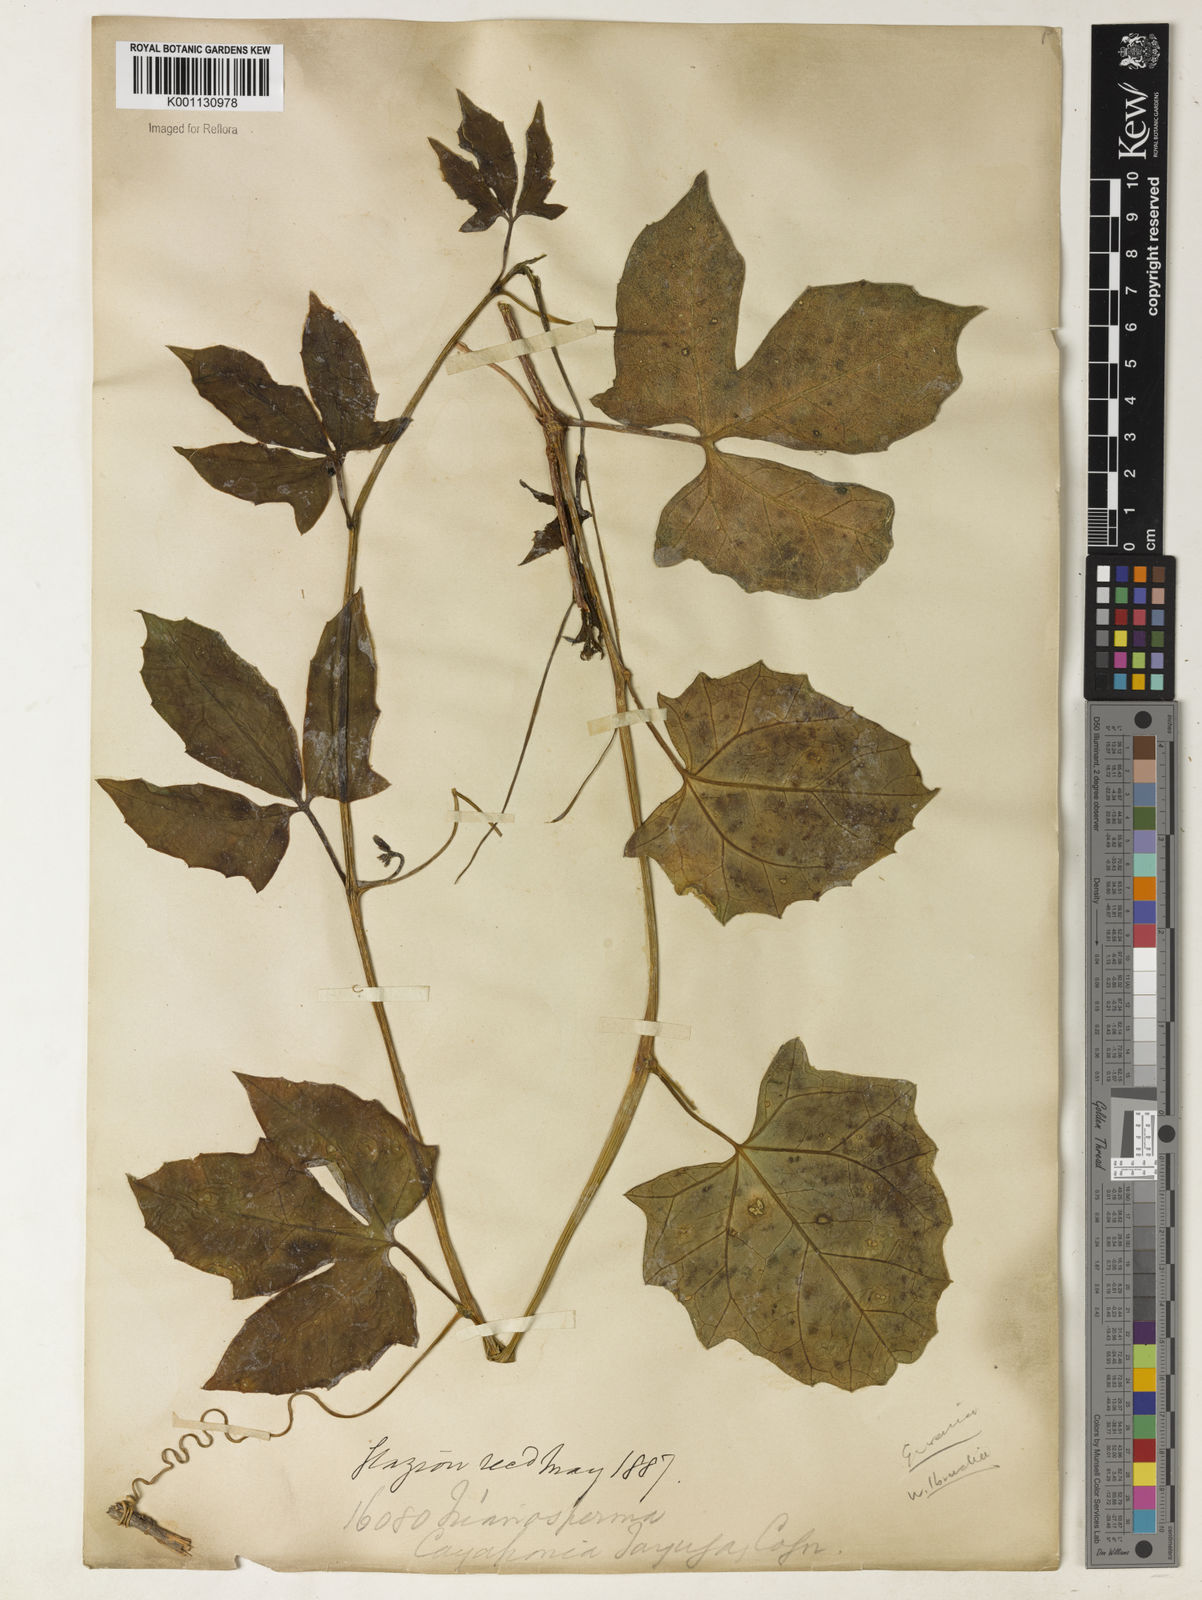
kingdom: Plantae
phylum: Tracheophyta
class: Magnoliopsida
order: Cucurbitales
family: Cucurbitaceae
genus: Psiguria
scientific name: Psiguria warmingiana
